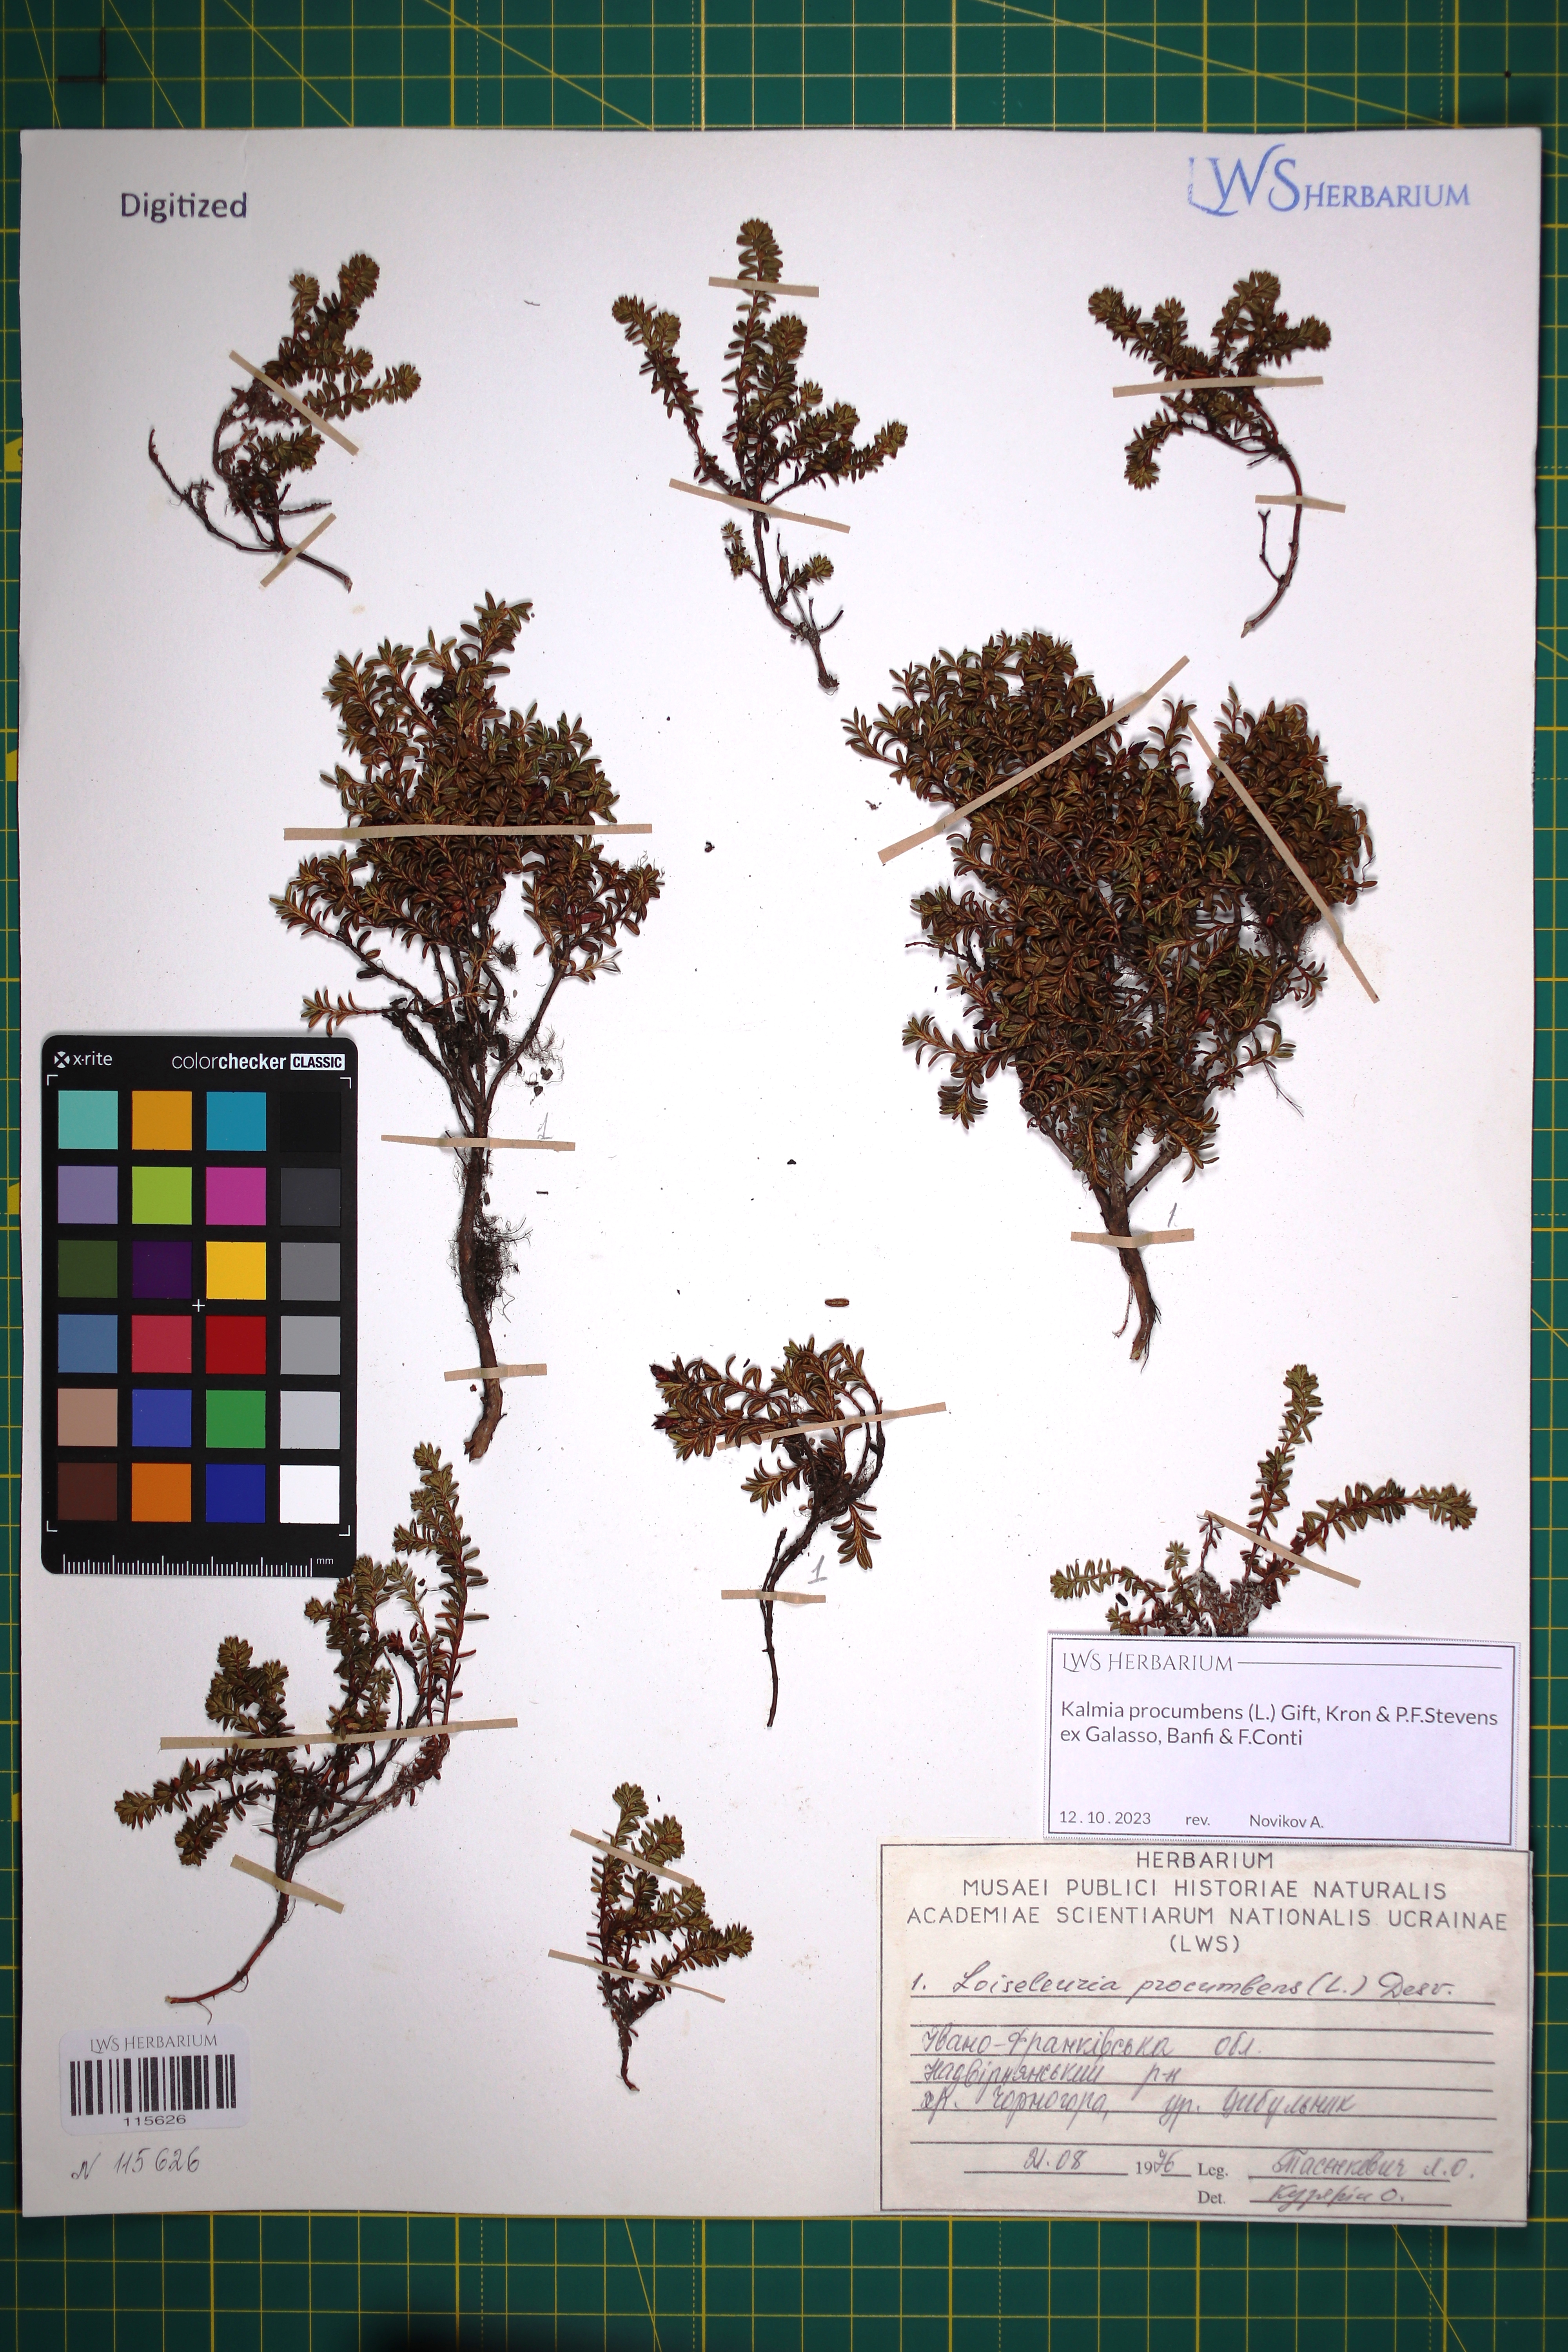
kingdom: Plantae
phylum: Tracheophyta
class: Magnoliopsida
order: Ericales
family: Ericaceae
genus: Kalmia
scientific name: Kalmia procumbens
